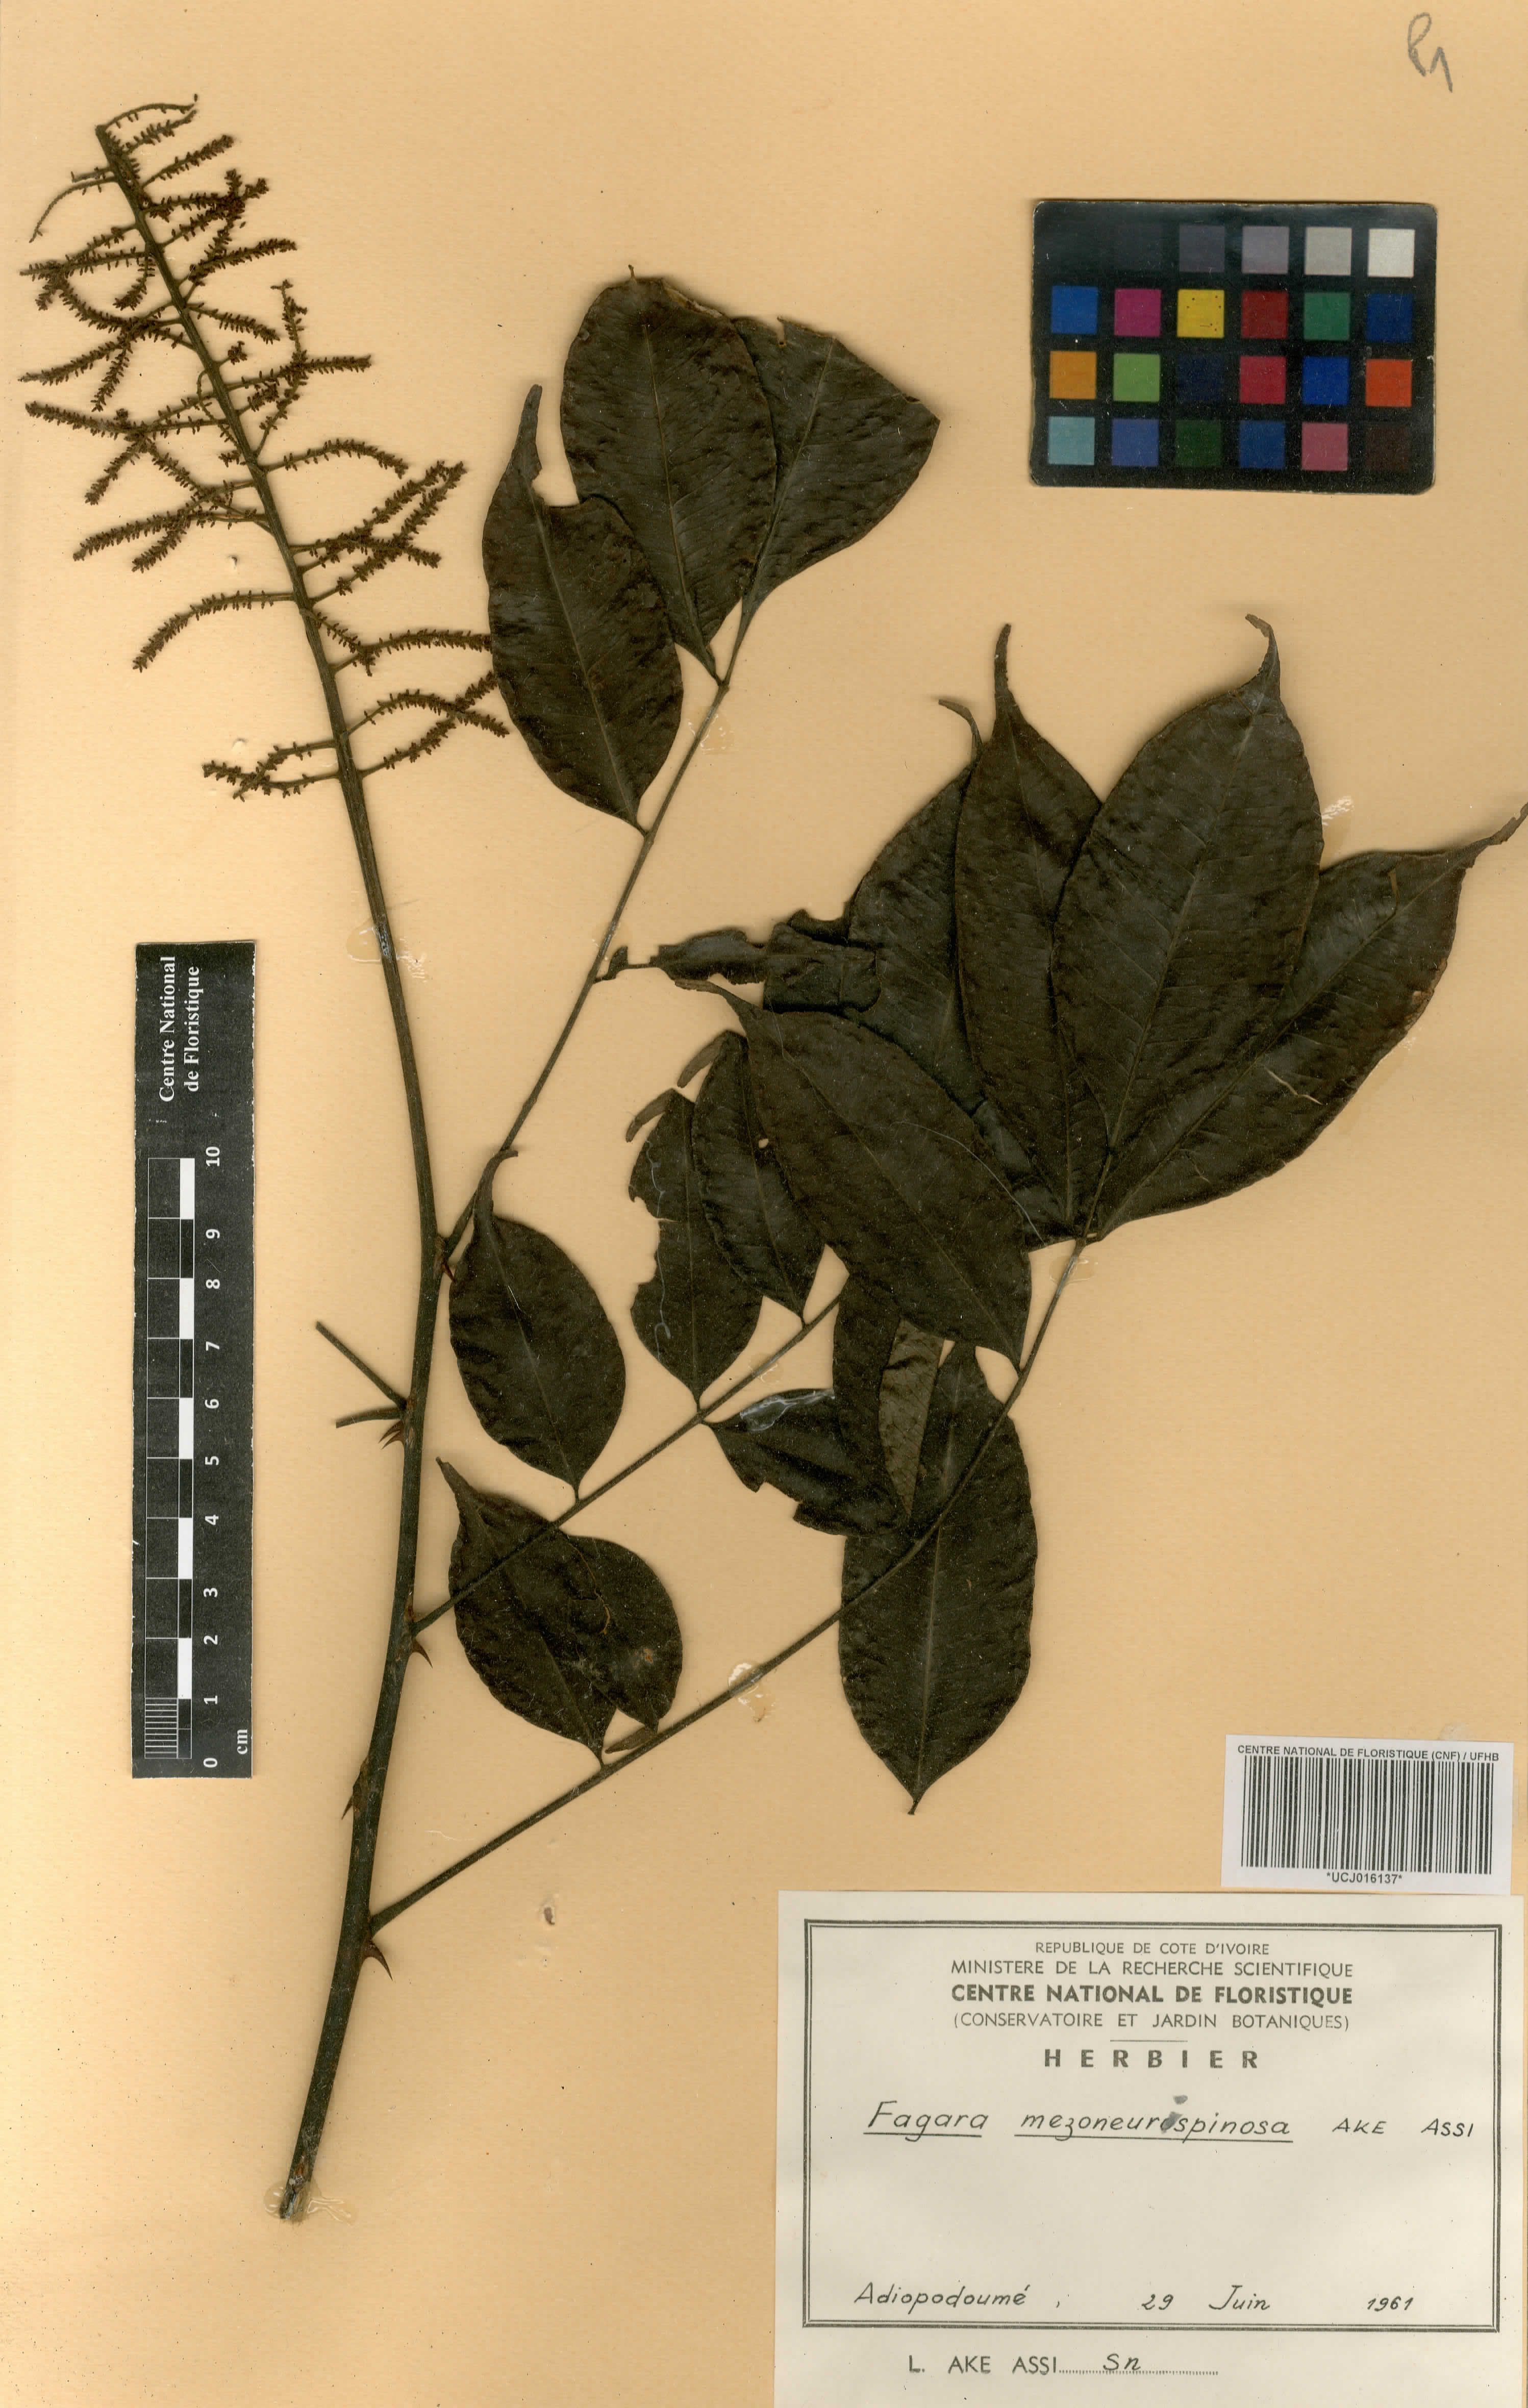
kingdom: Plantae
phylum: Tracheophyta
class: Magnoliopsida
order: Sapindales
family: Rutaceae
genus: Zanthoxylum
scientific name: Zanthoxylum mezoneurispinosum
